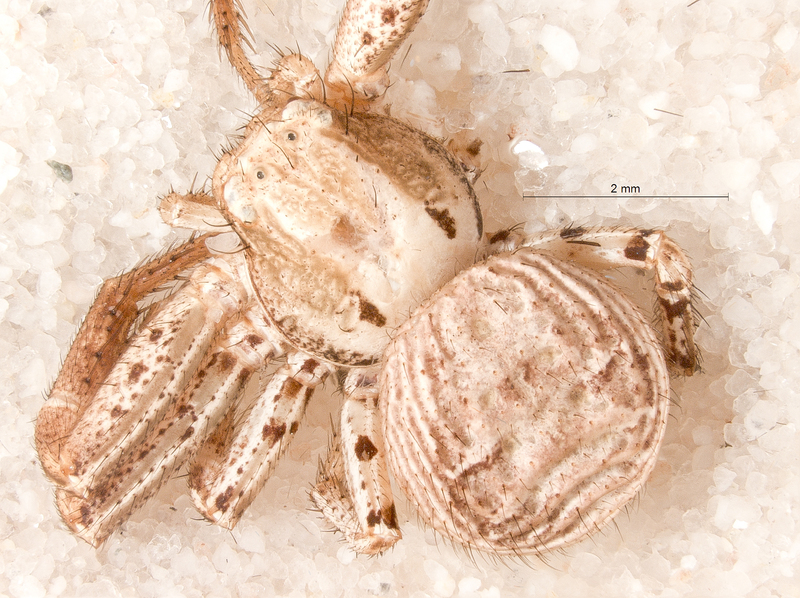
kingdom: Animalia
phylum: Arthropoda
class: Arachnida
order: Araneae
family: Thomisidae
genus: Xysticus
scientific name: Xysticus kochi
